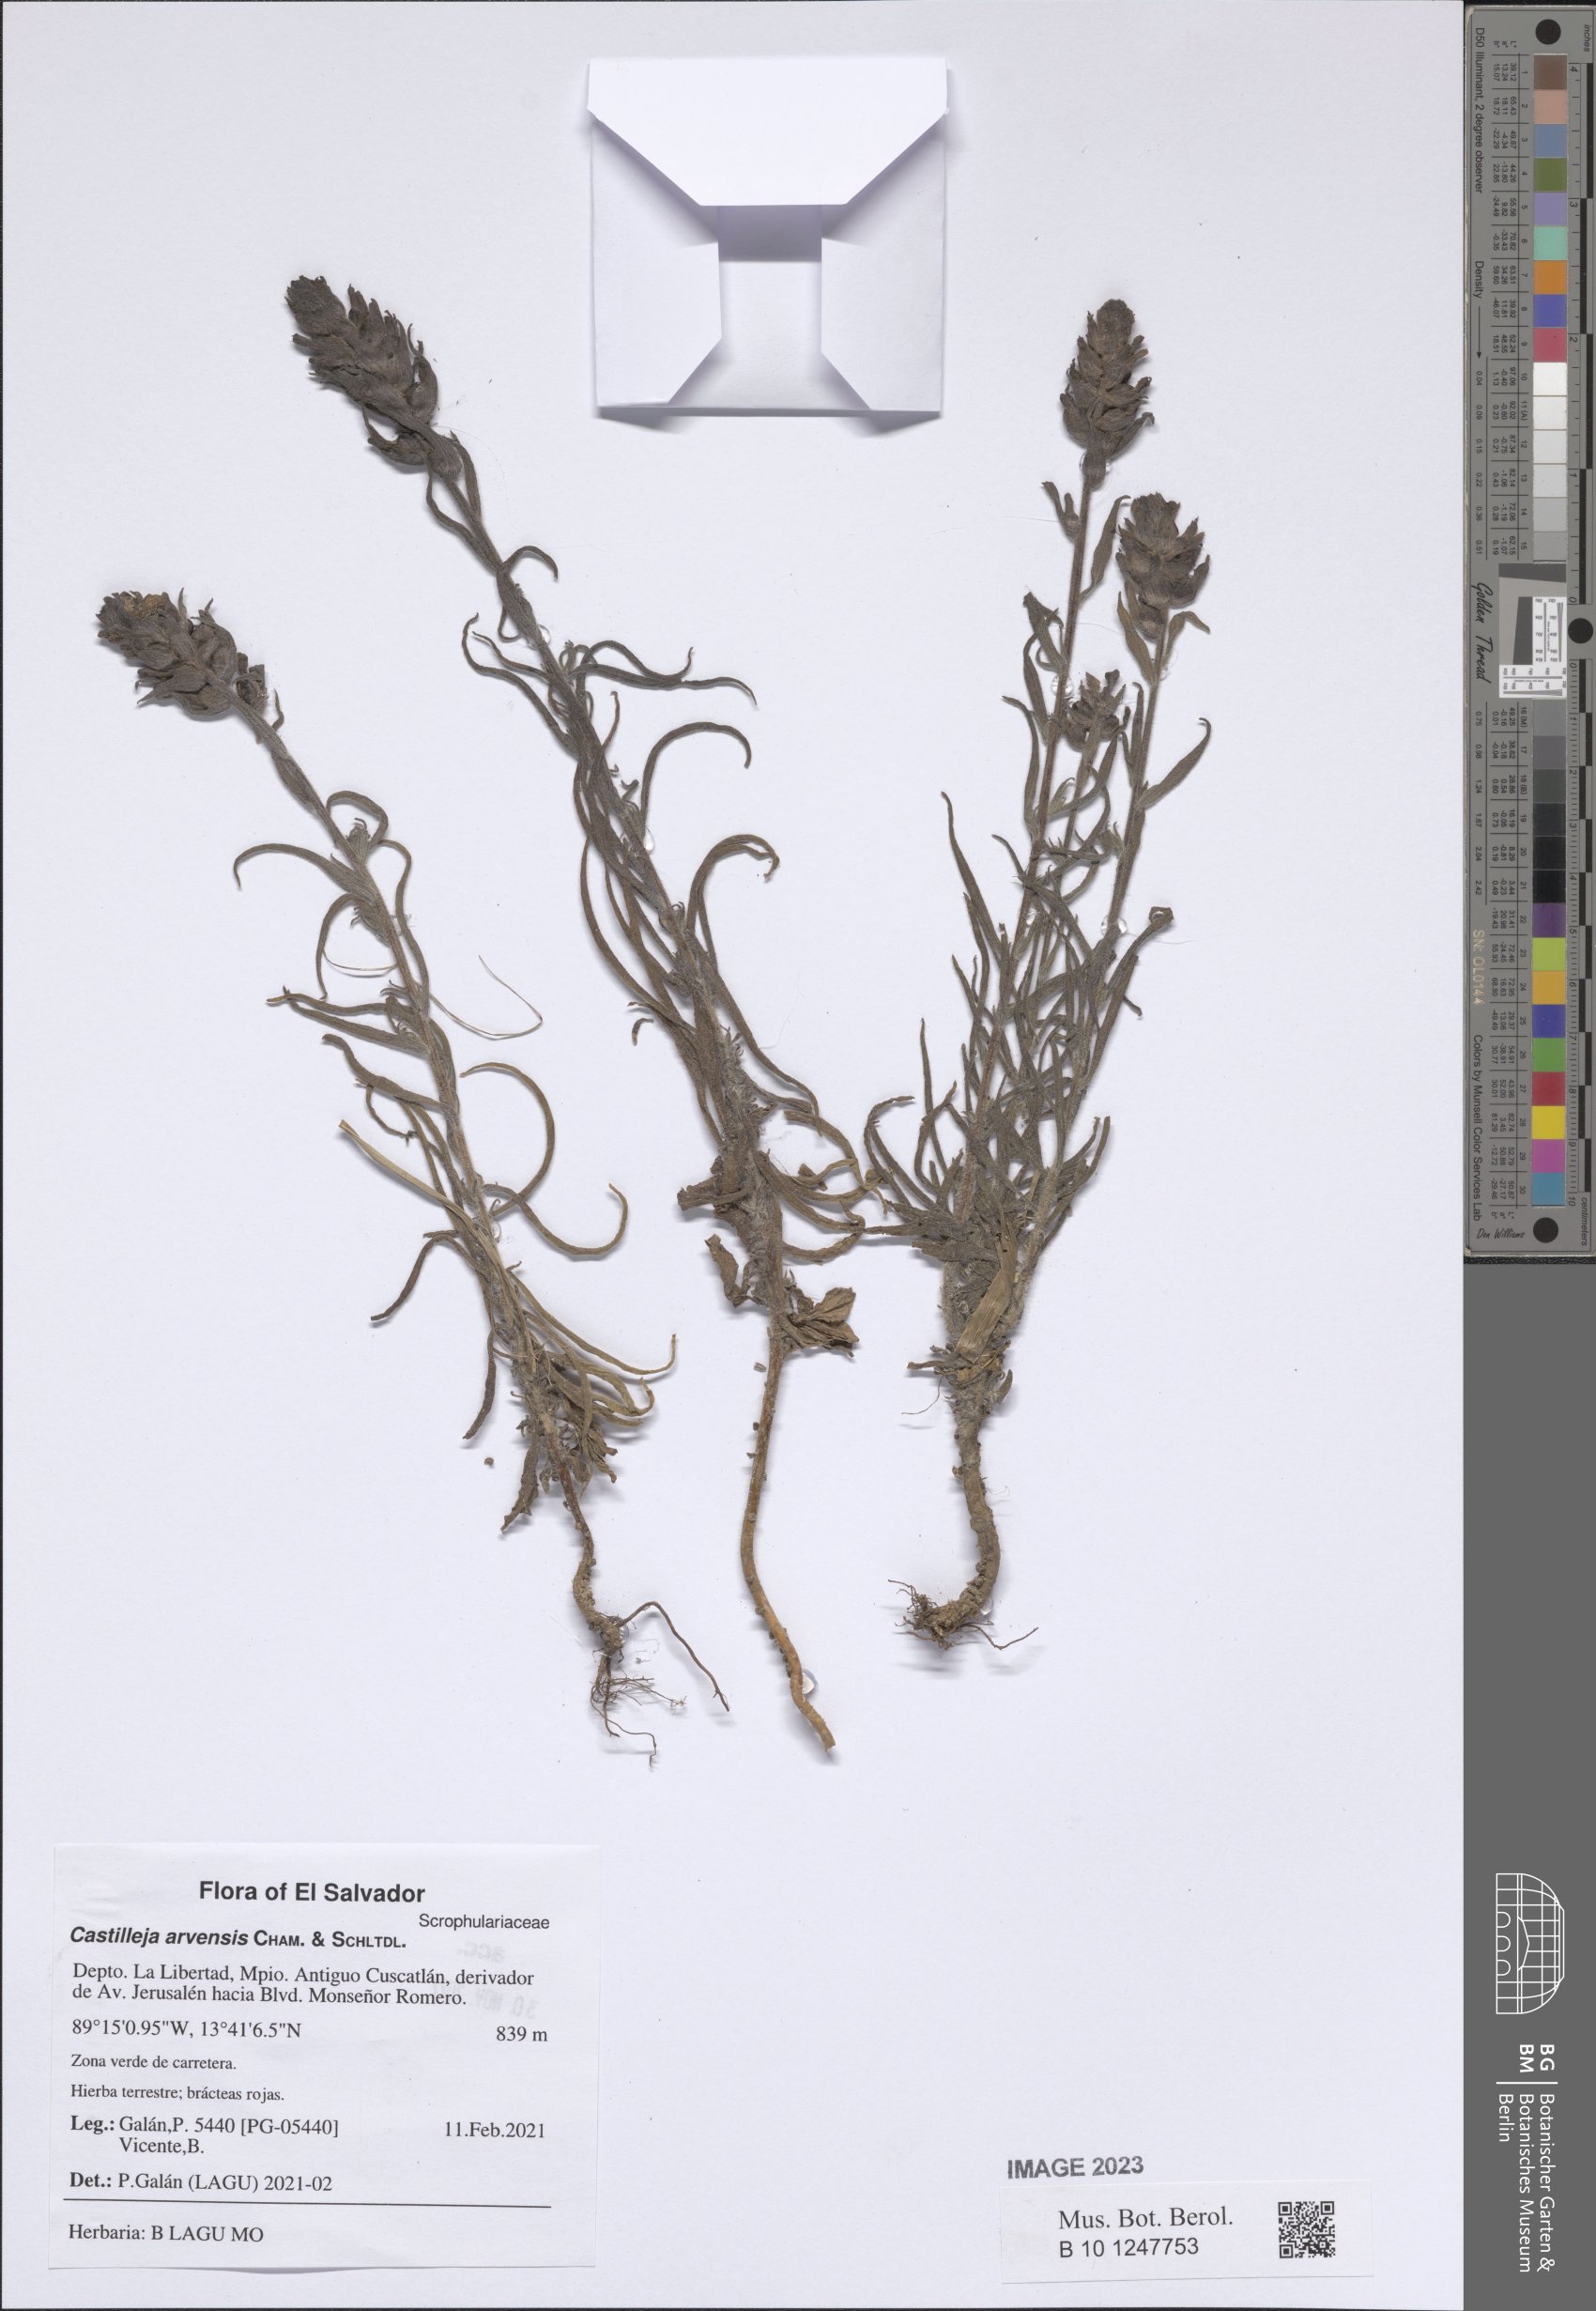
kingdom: Plantae
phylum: Tracheophyta
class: Magnoliopsida
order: Lamiales
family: Orobanchaceae
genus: Castilleja
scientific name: Castilleja arvensis
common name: Indian paintbrush
